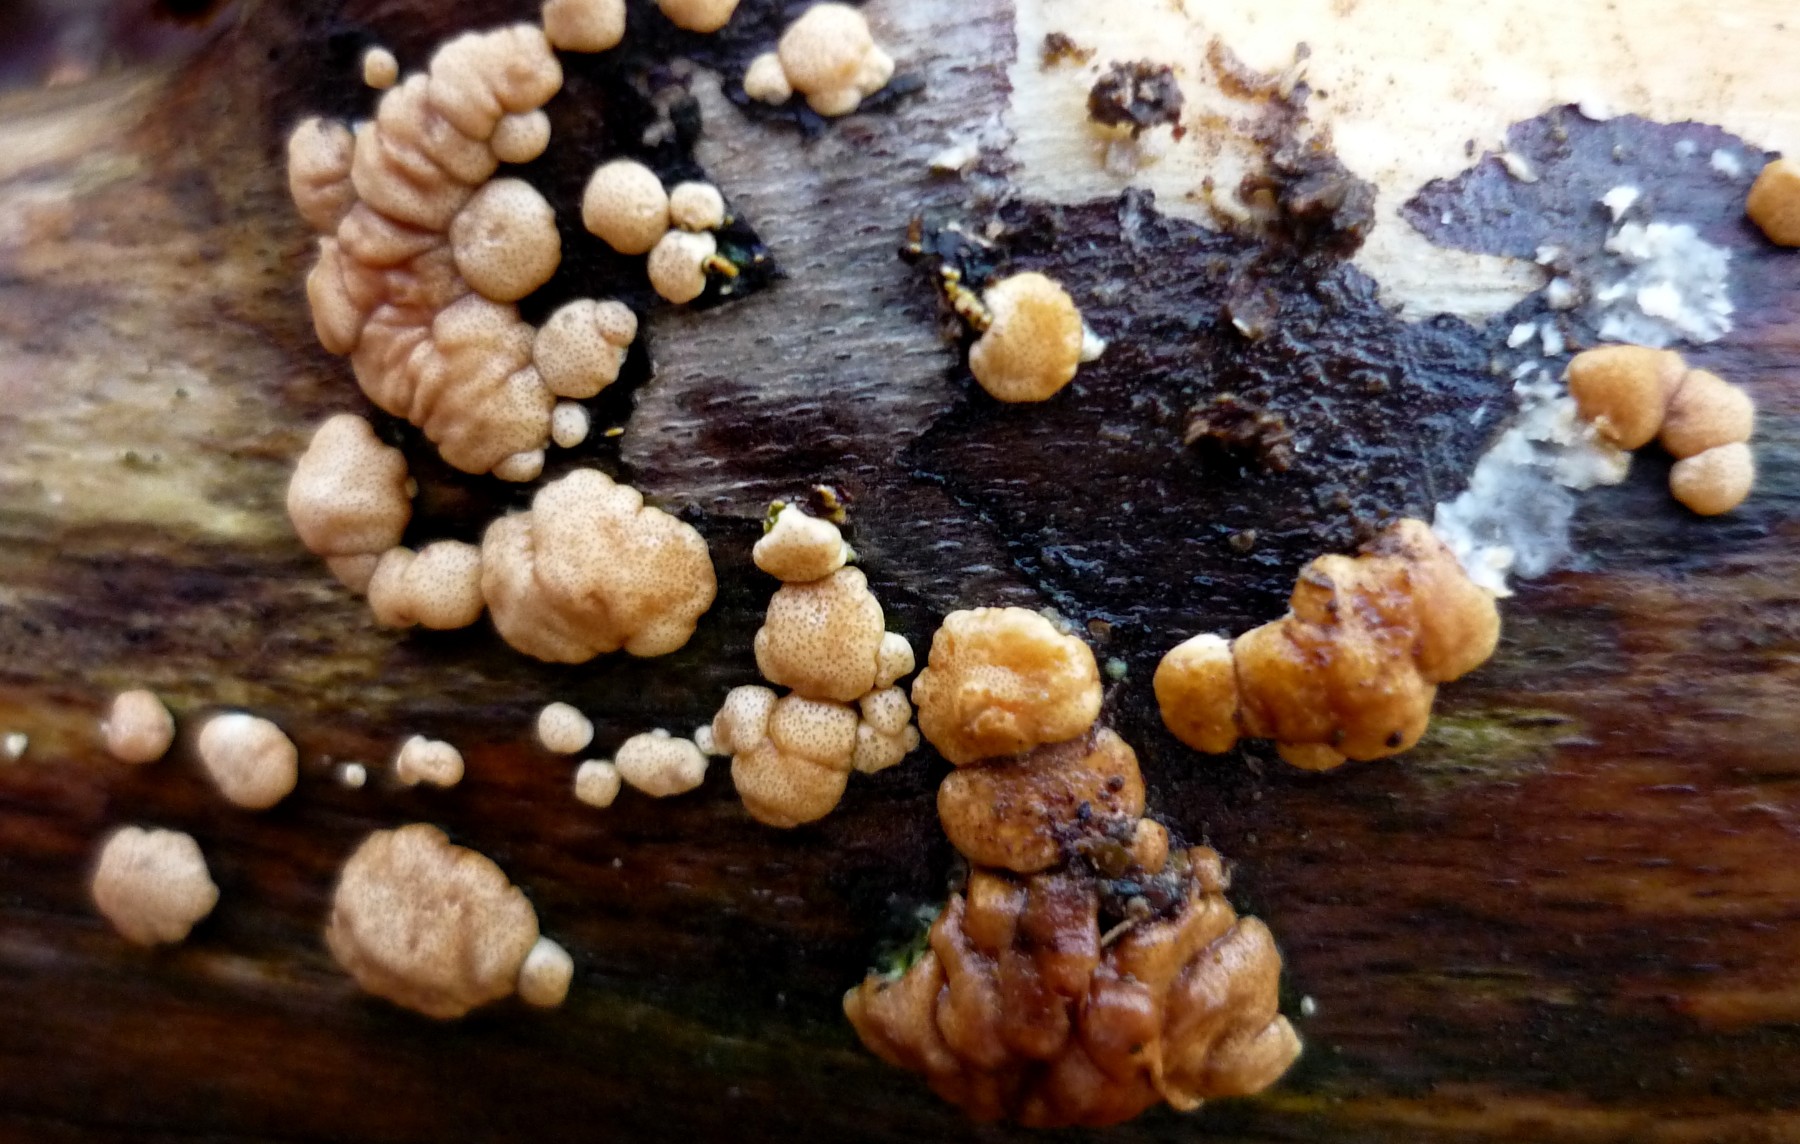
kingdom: Fungi
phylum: Ascomycota
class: Sordariomycetes
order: Hypocreales
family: Hypocreaceae
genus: Trichoderma
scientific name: Trichoderma europaeum
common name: rosabrun kødkerne
